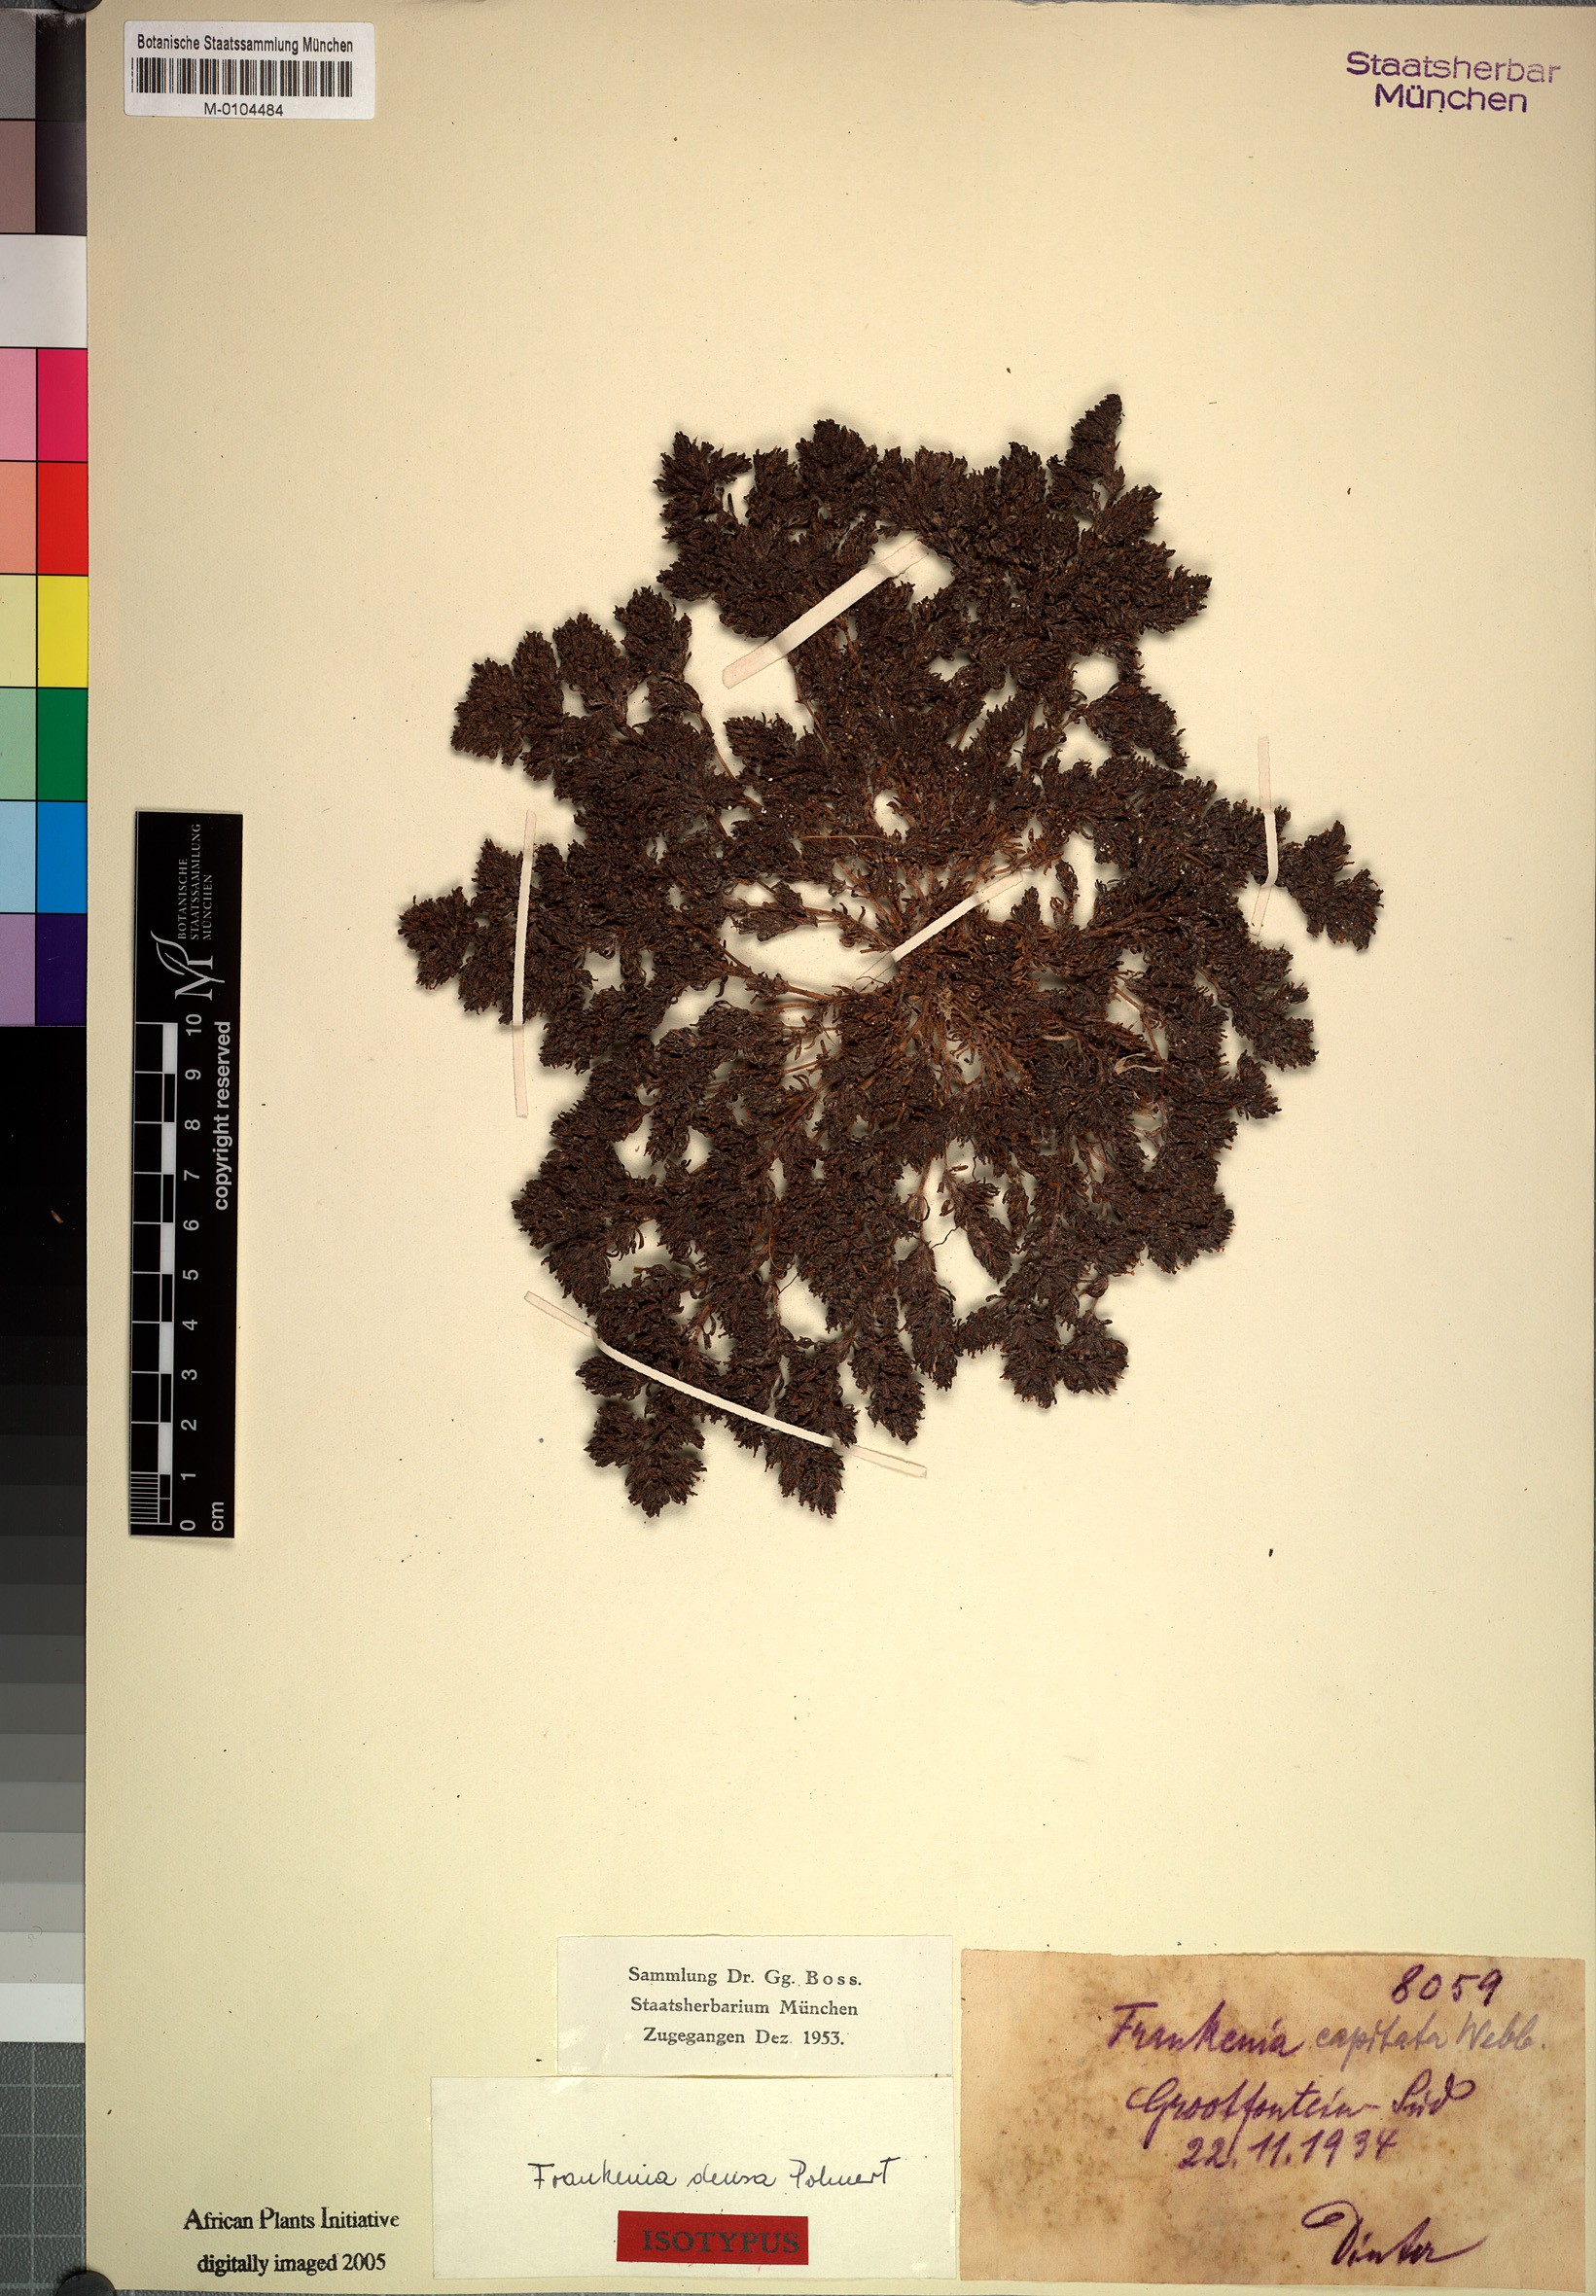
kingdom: Plantae
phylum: Tracheophyta
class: Magnoliopsida
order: Caryophyllales
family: Frankeniaceae
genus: Frankenia
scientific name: Frankenia pulverulenta
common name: European seaheath
